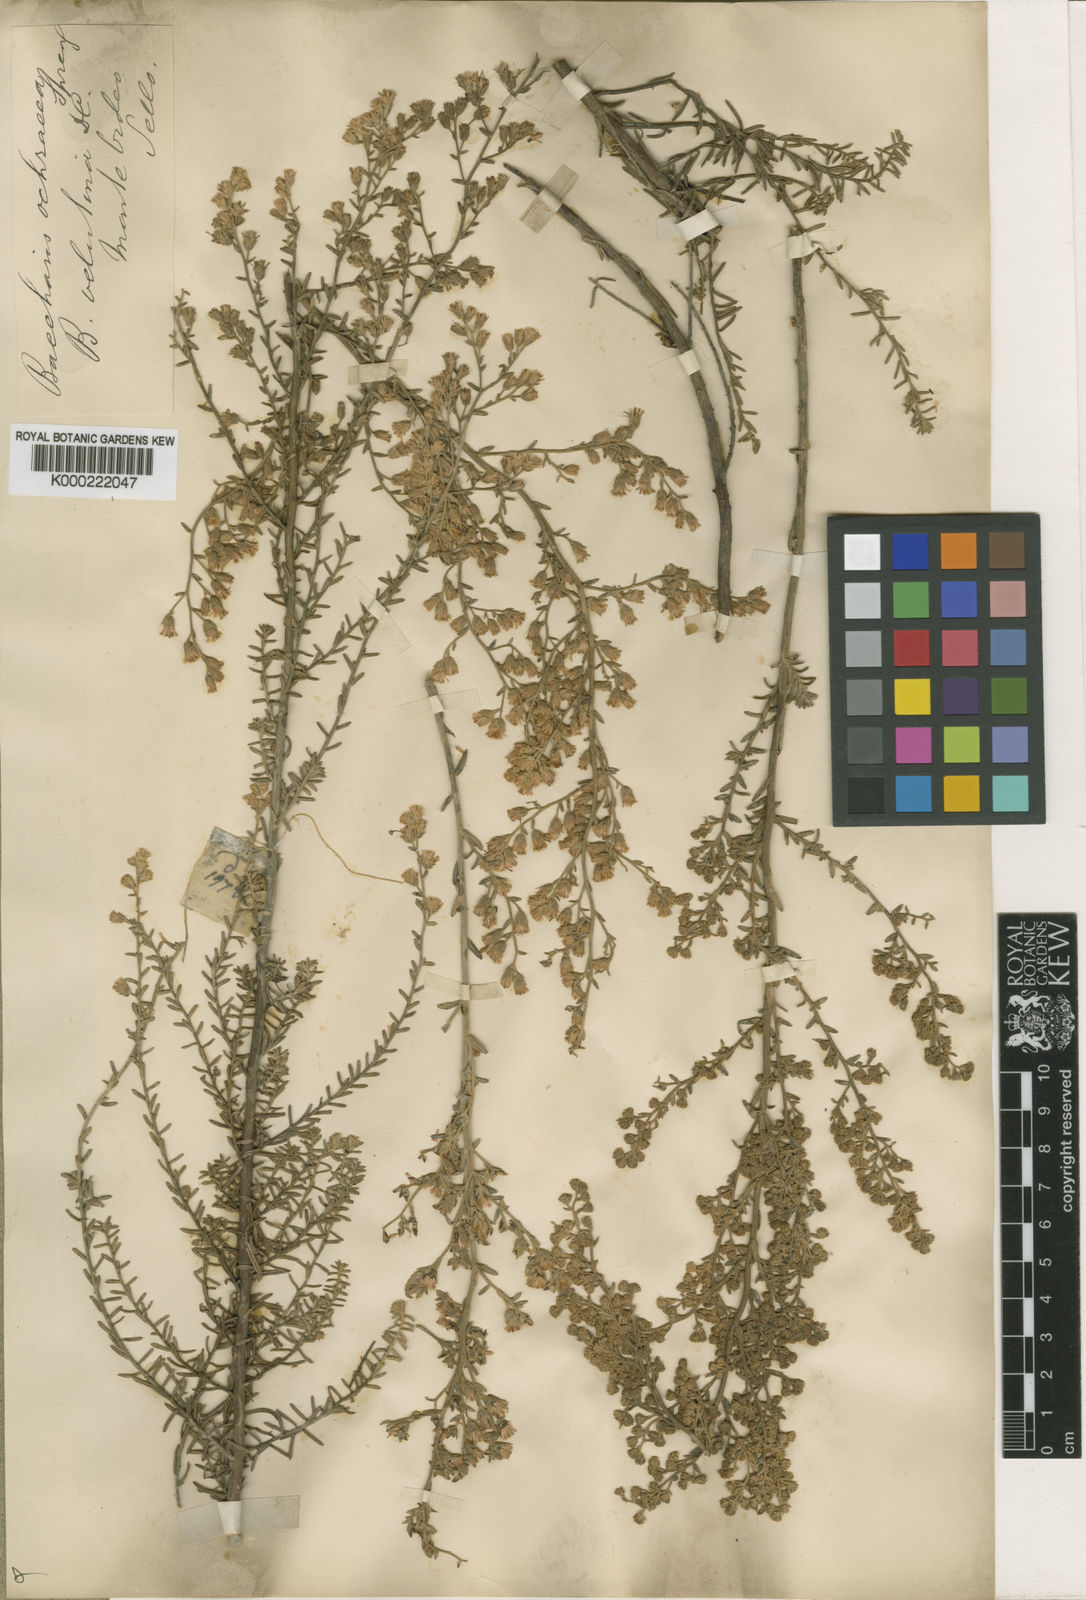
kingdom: Plantae
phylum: Tracheophyta
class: Magnoliopsida
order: Asterales
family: Asteraceae
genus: Baccharis
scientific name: Baccharis ochracea
